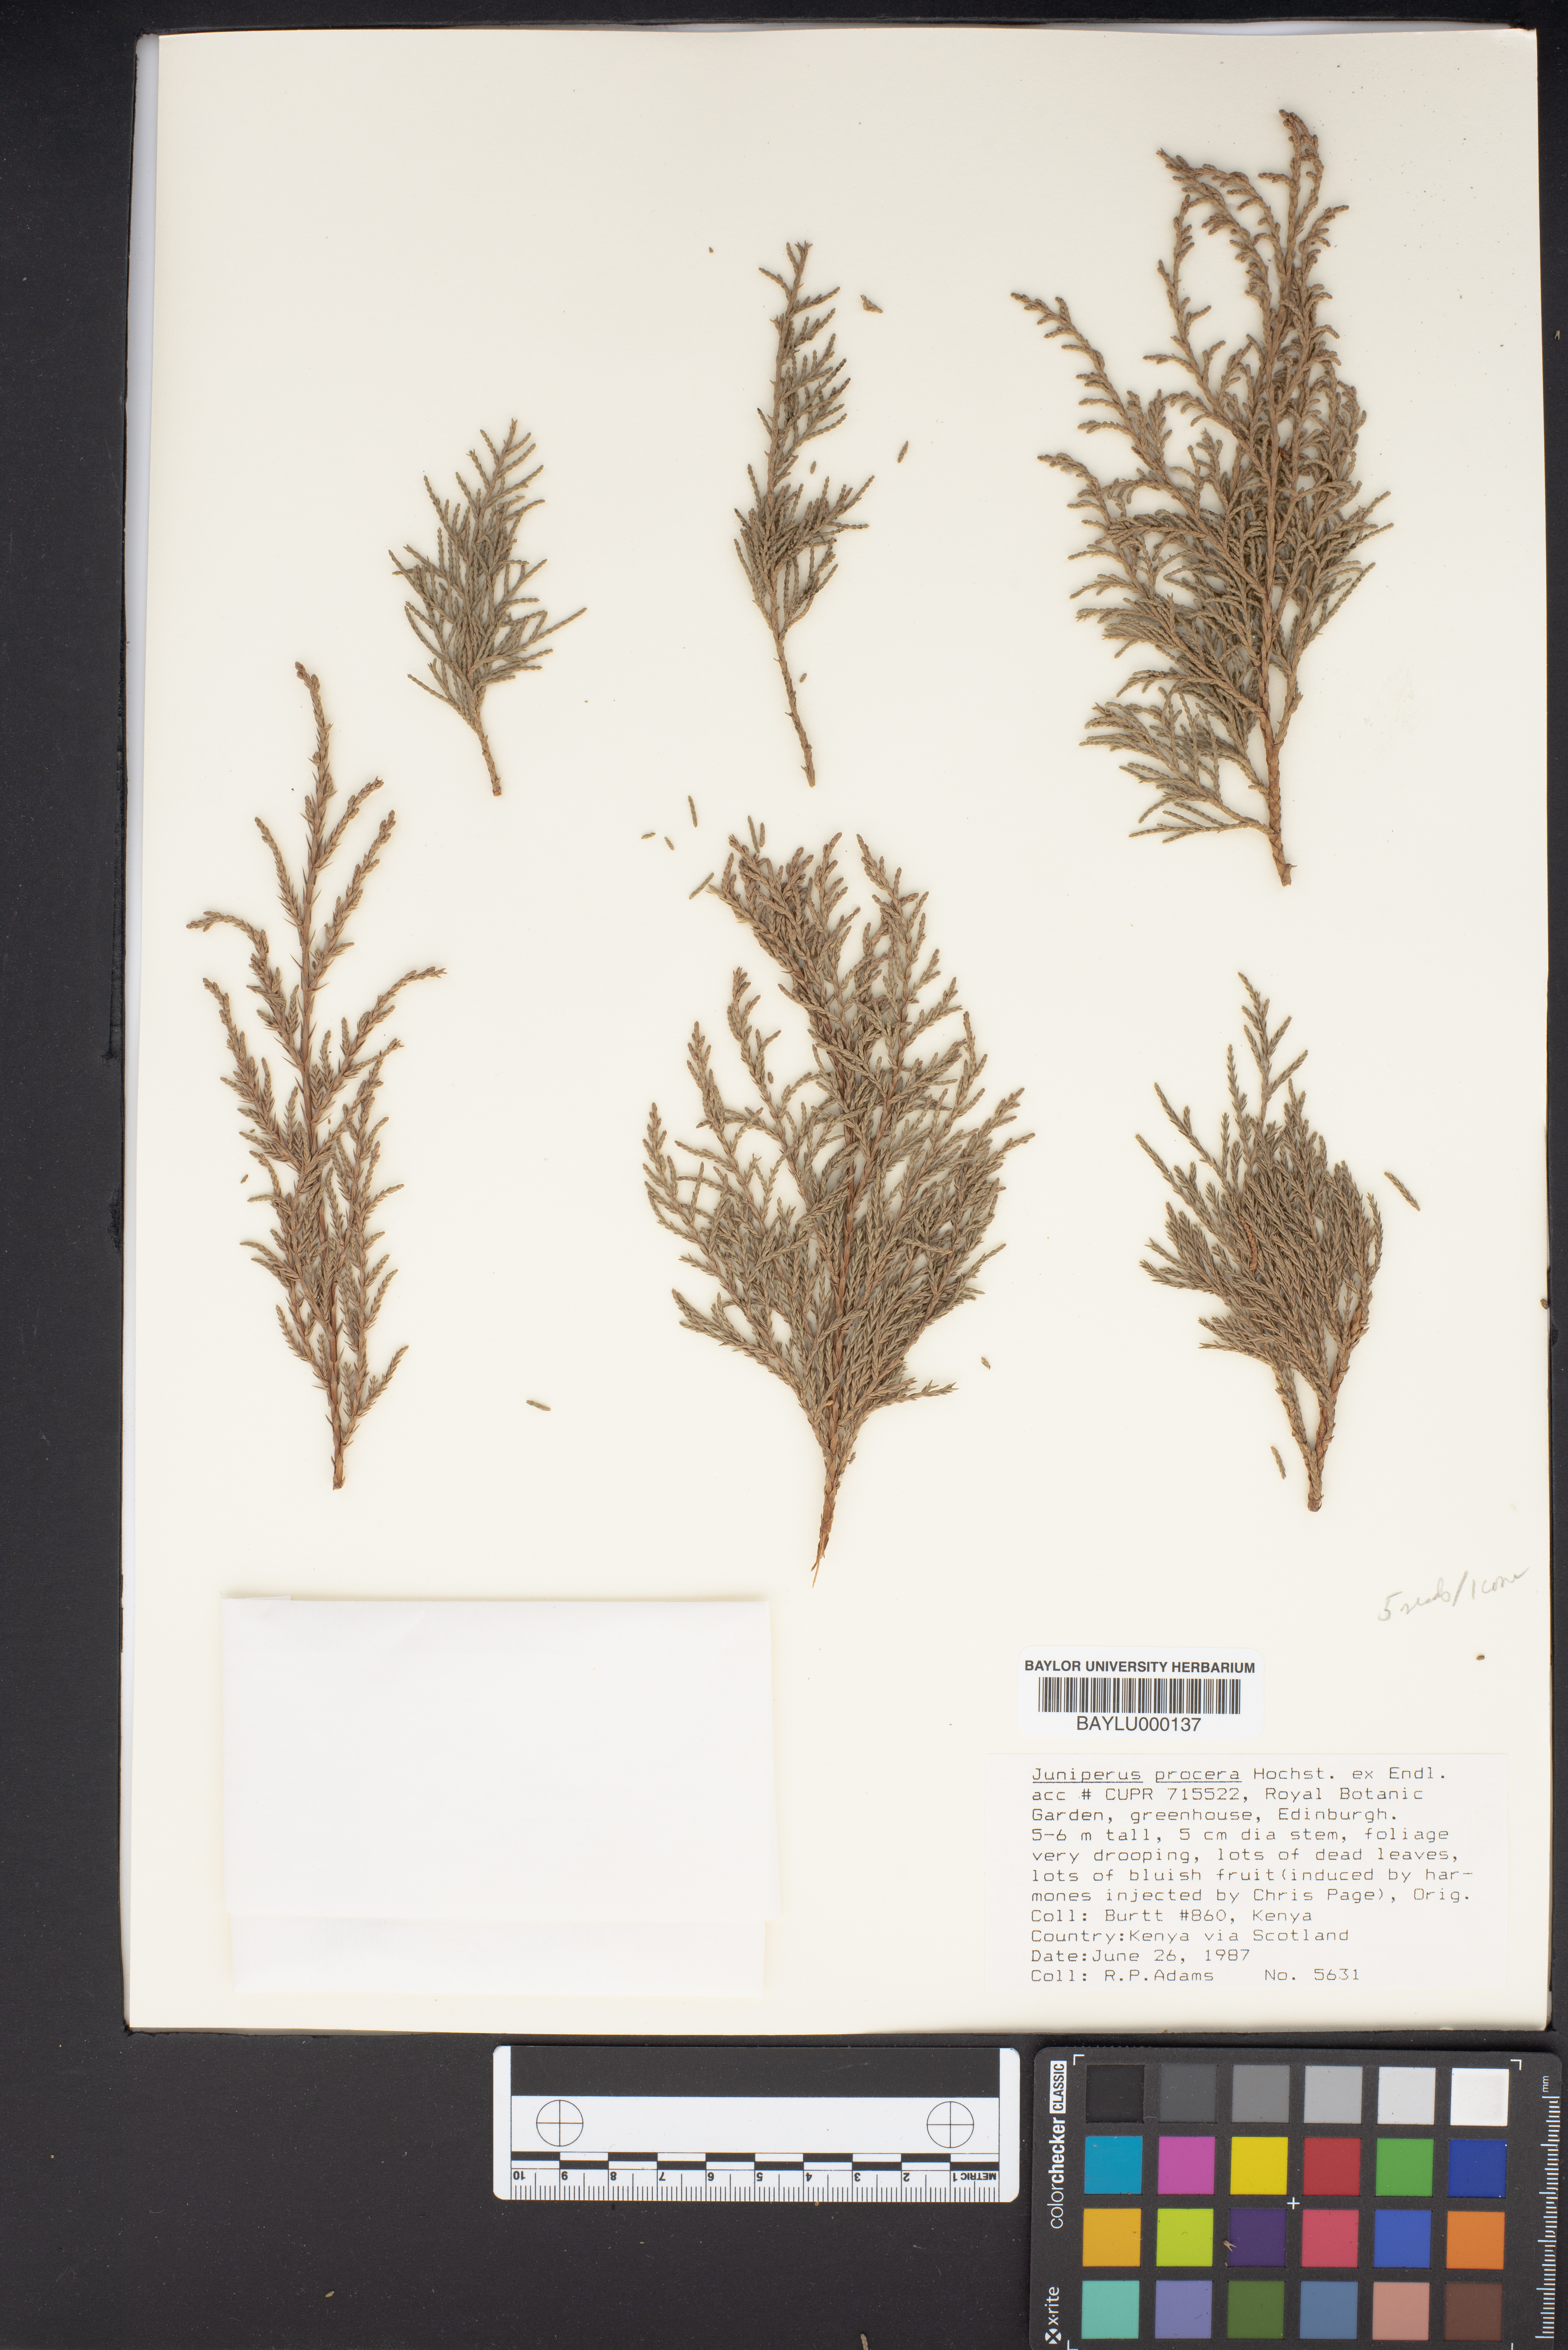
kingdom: Plantae
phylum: Tracheophyta
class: Pinopsida
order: Pinales
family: Cupressaceae
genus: Juniperus
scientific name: Juniperus procera
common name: African juniper
